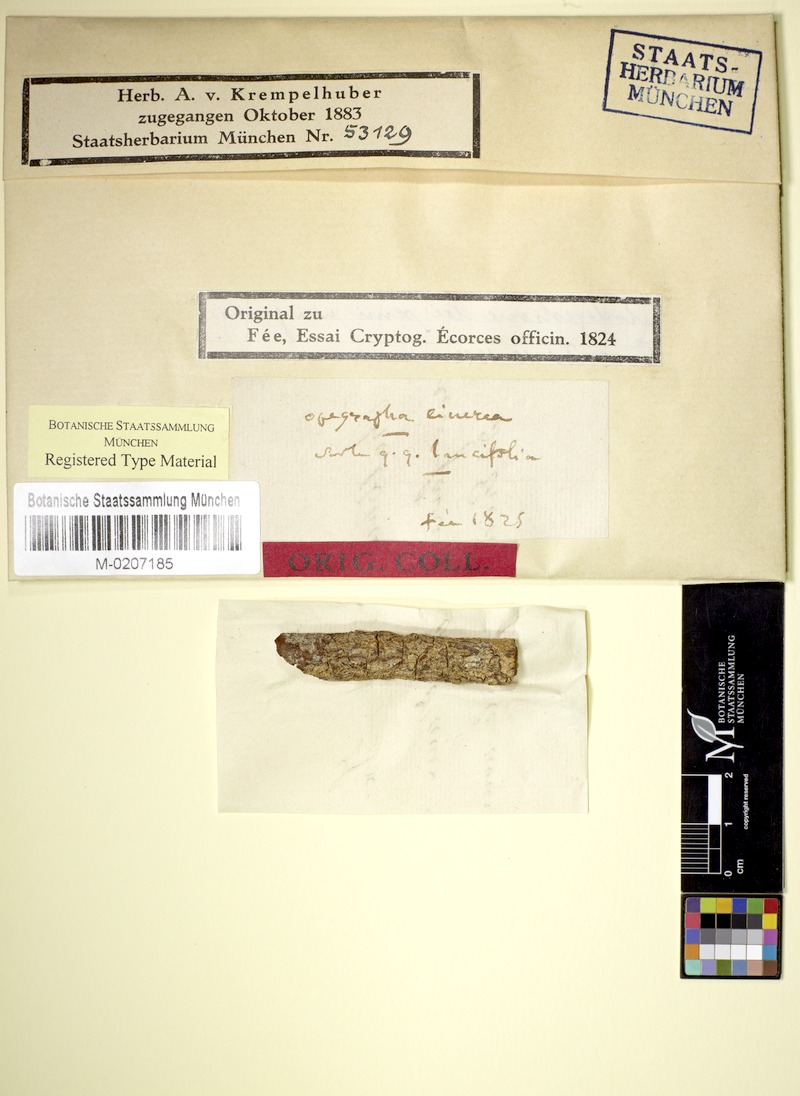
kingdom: Fungi
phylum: Ascomycota
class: Lecanoromycetes
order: Ostropales
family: Graphidaceae
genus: Allographa
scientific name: Allographa cinerea
